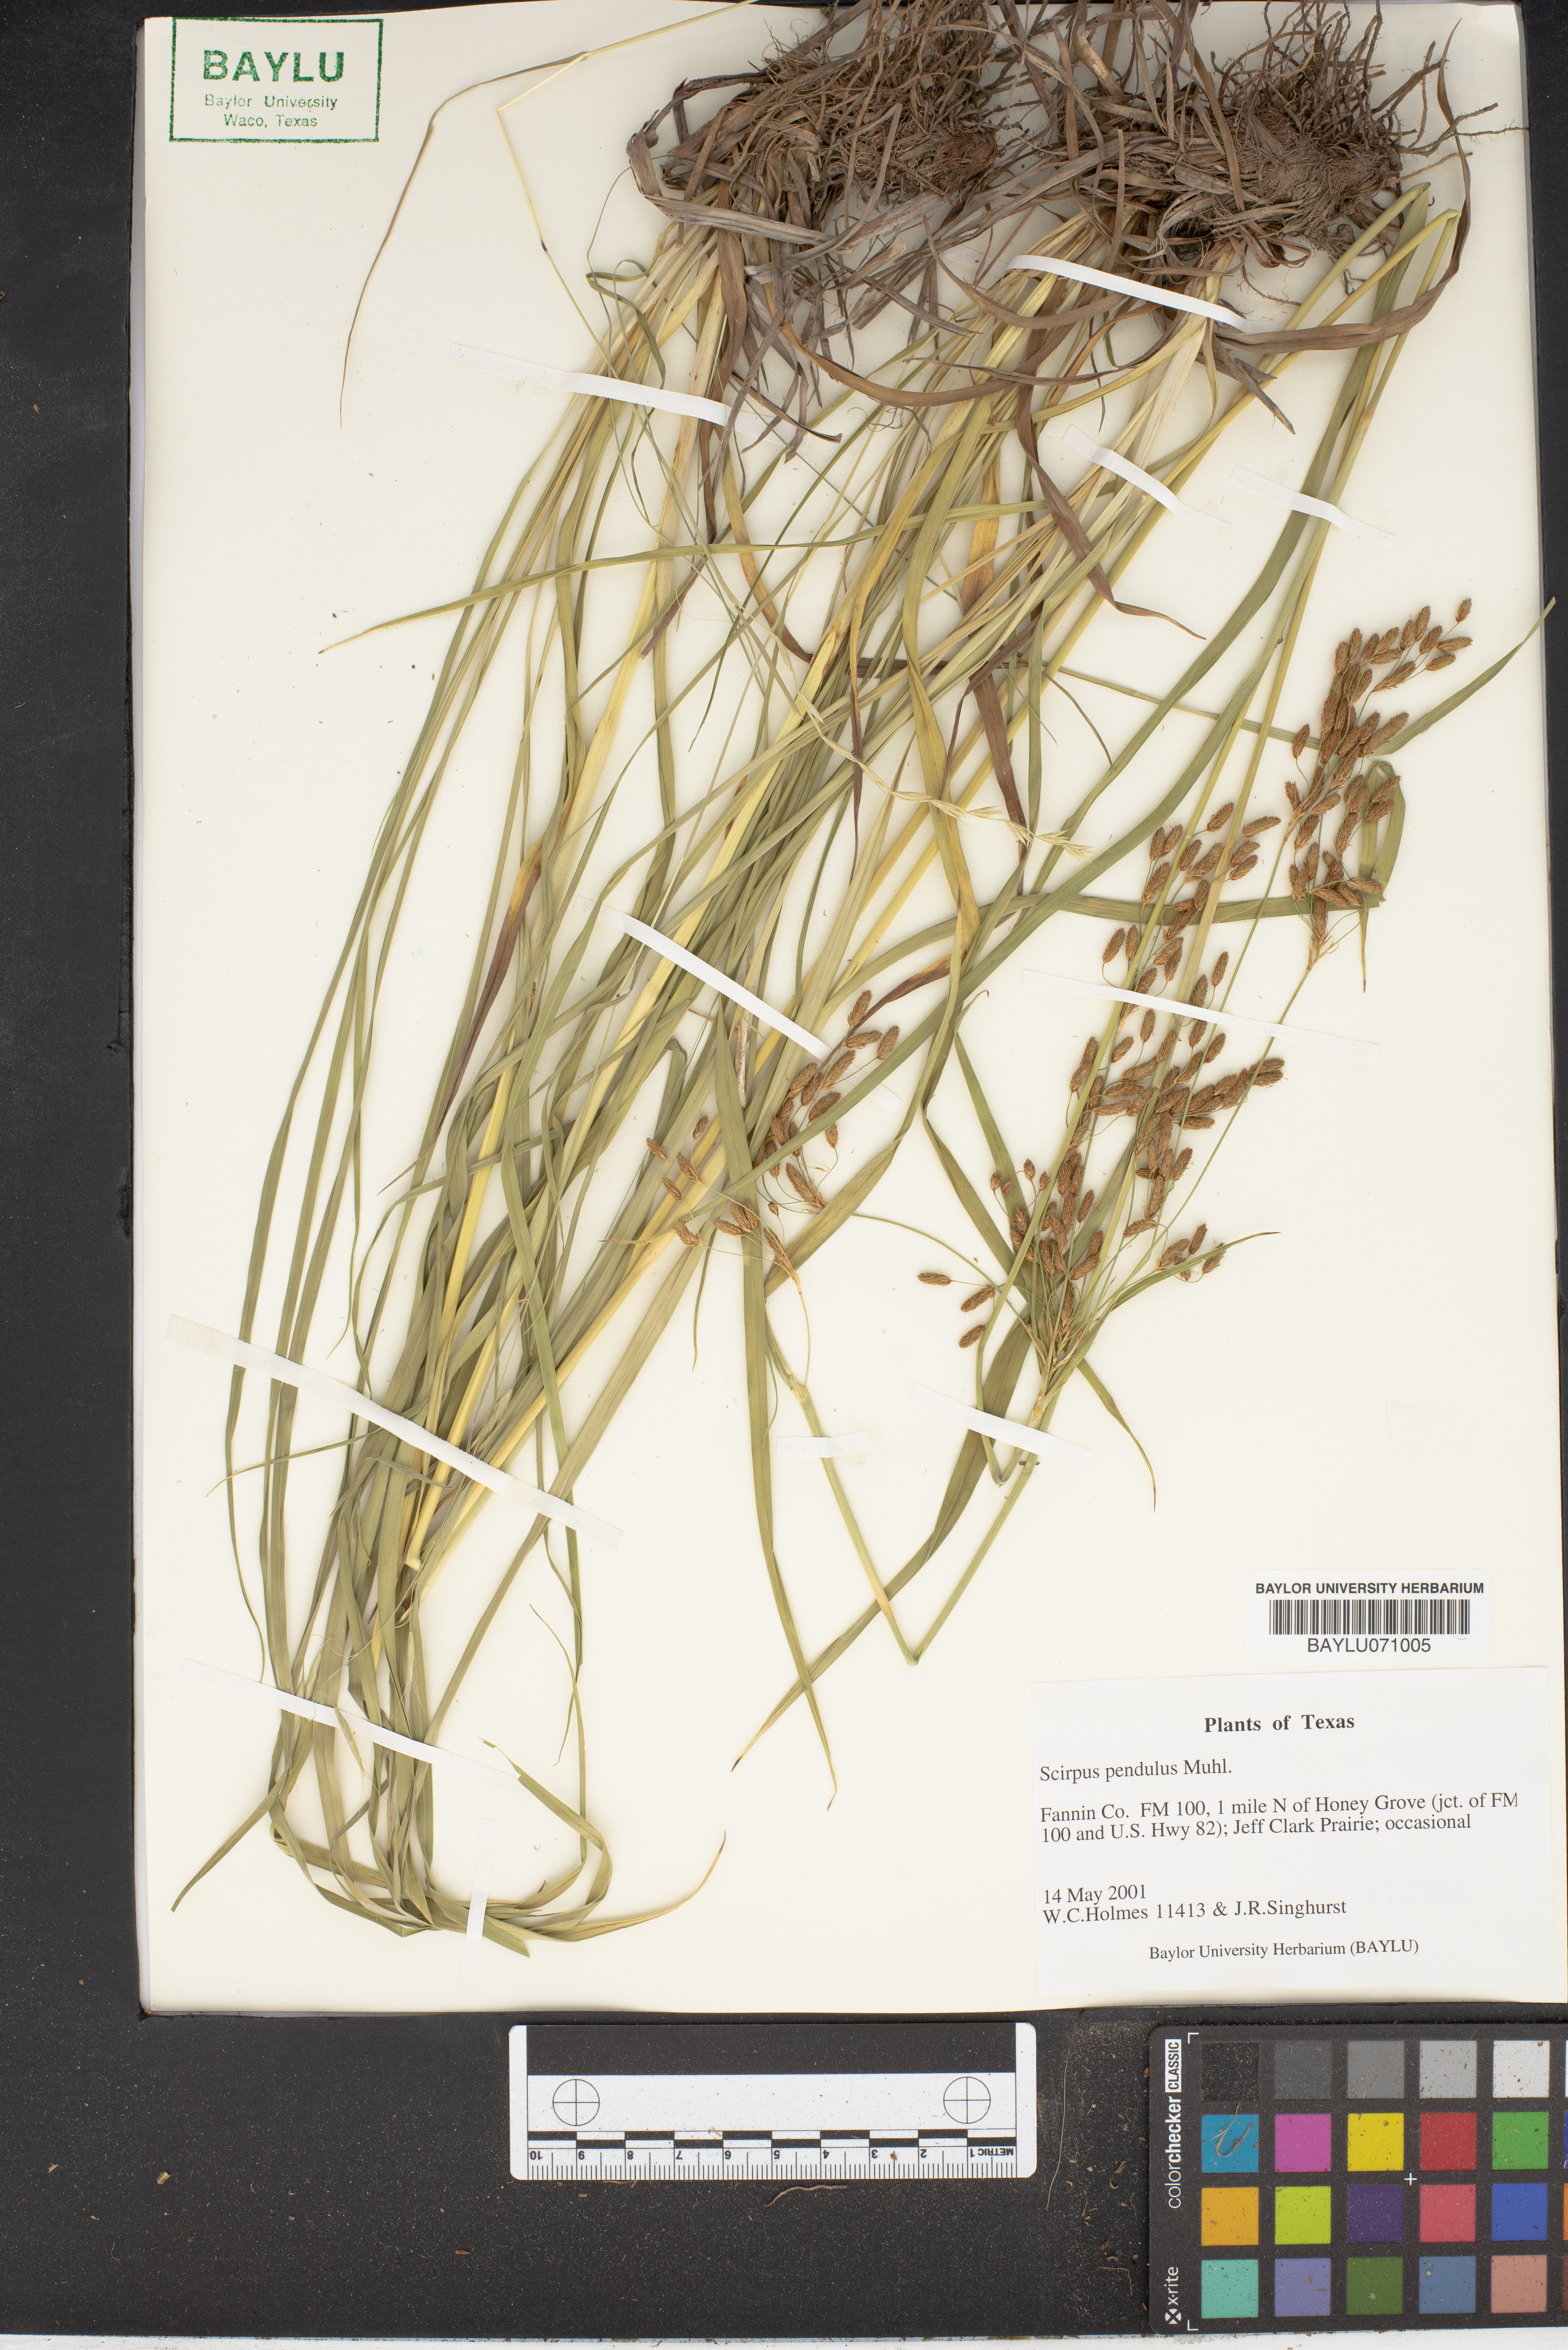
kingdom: Plantae
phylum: Tracheophyta
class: Liliopsida
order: Poales
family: Cyperaceae
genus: Scirpus
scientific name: Scirpus pendulus
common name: Nodding bulrush
